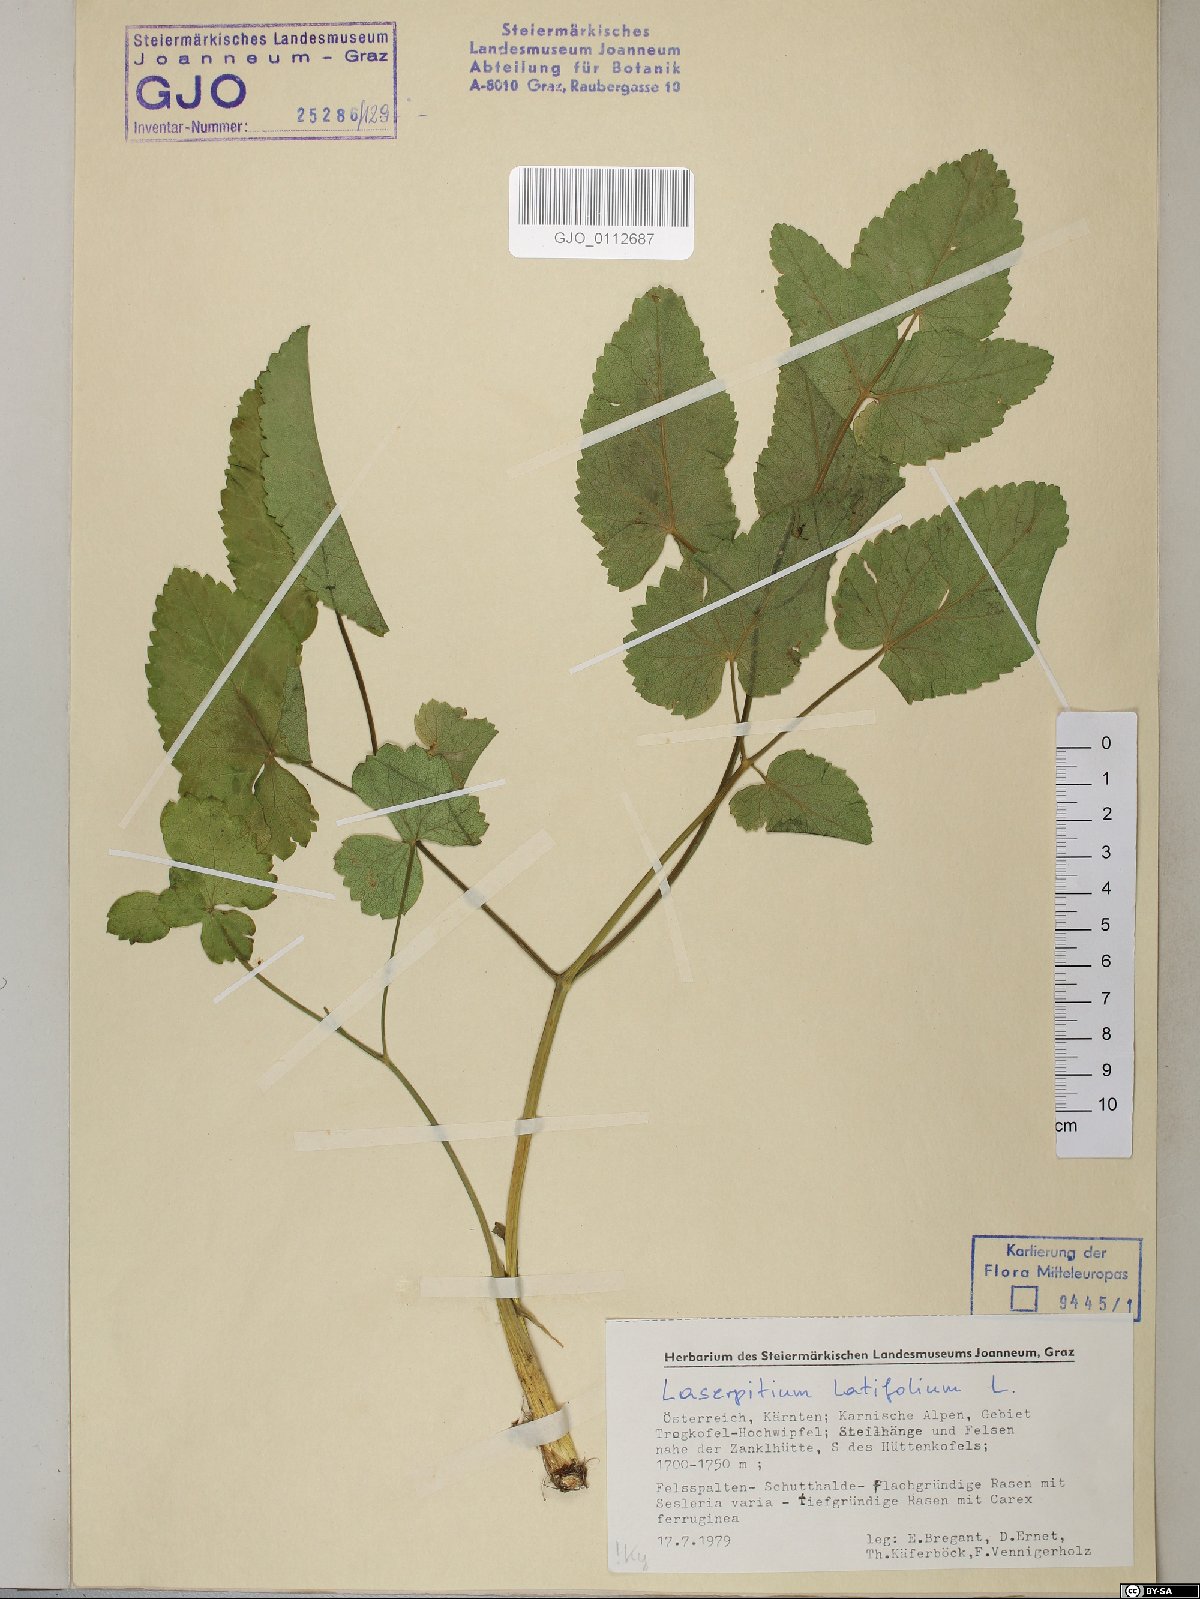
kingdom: Plantae
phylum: Tracheophyta
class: Magnoliopsida
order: Apiales
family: Apiaceae
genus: Laserpitium
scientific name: Laserpitium latifolium
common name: Broadleaf sermountain
